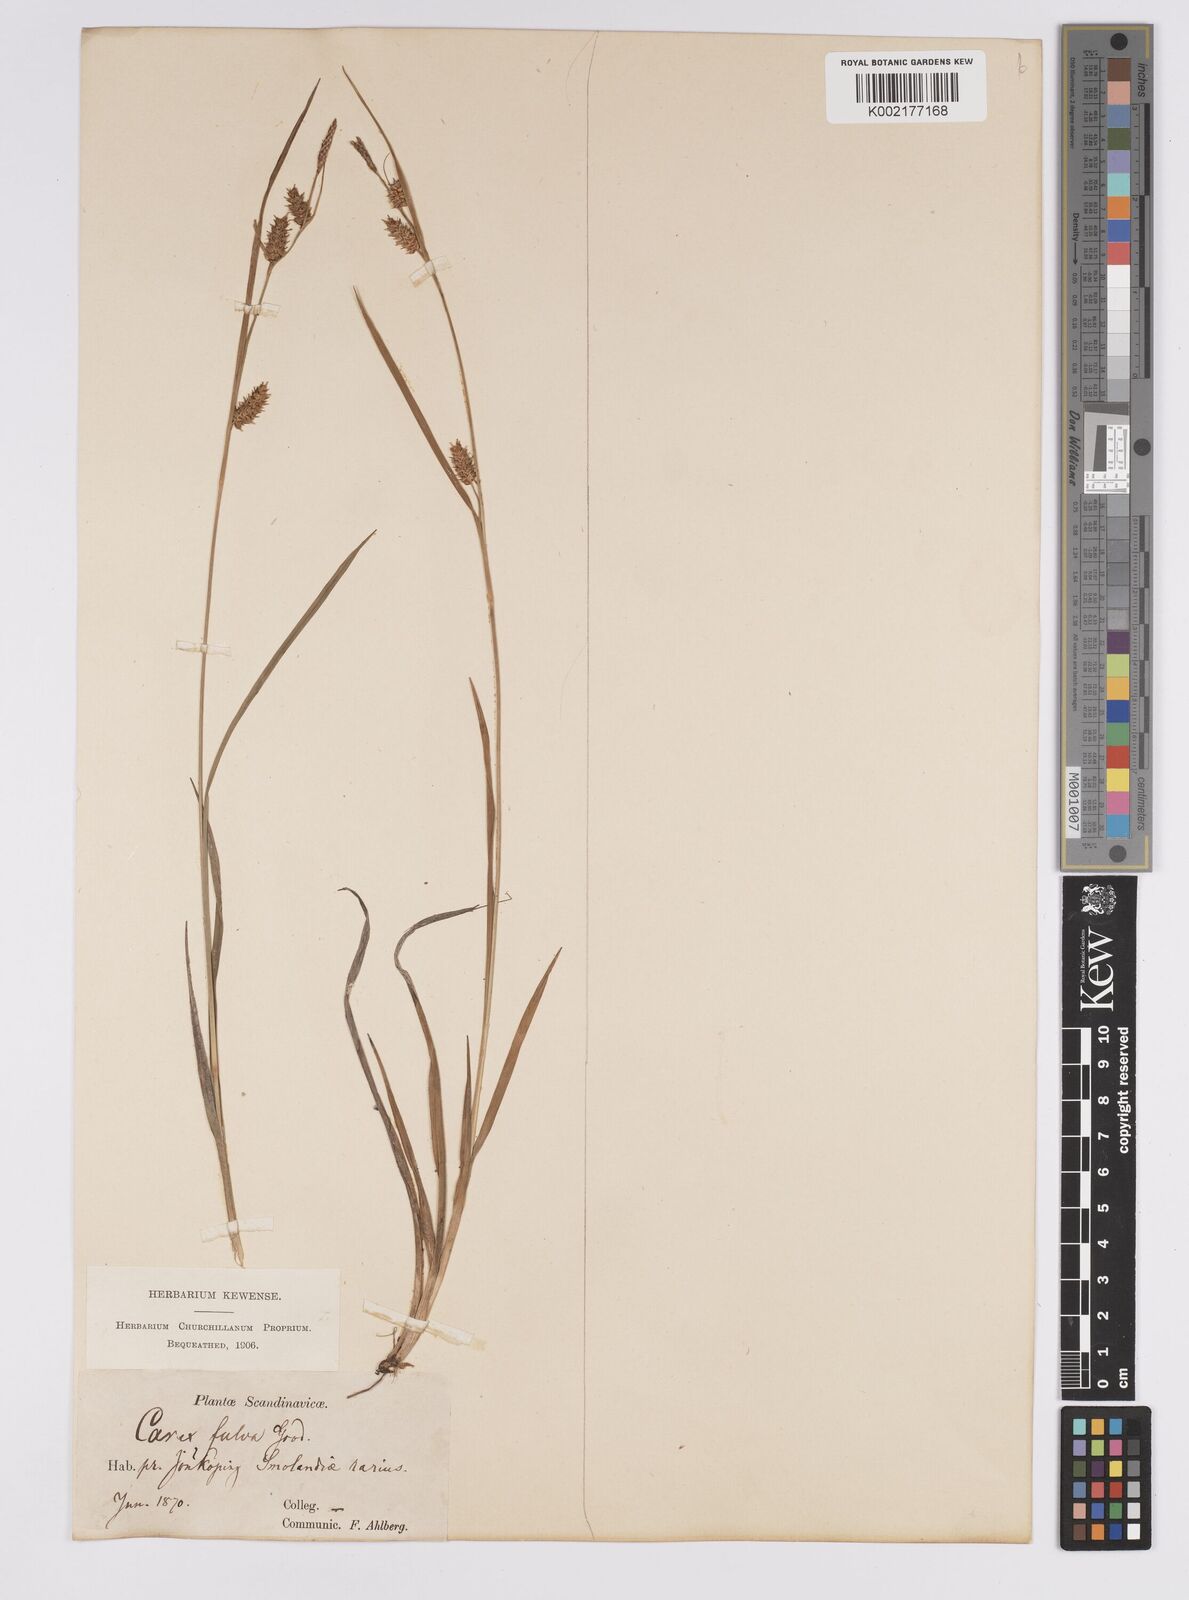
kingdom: Plantae
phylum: Tracheophyta
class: Liliopsida
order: Poales
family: Cyperaceae
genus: Carex
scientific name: Carex hostiana
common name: Tawny sedge
